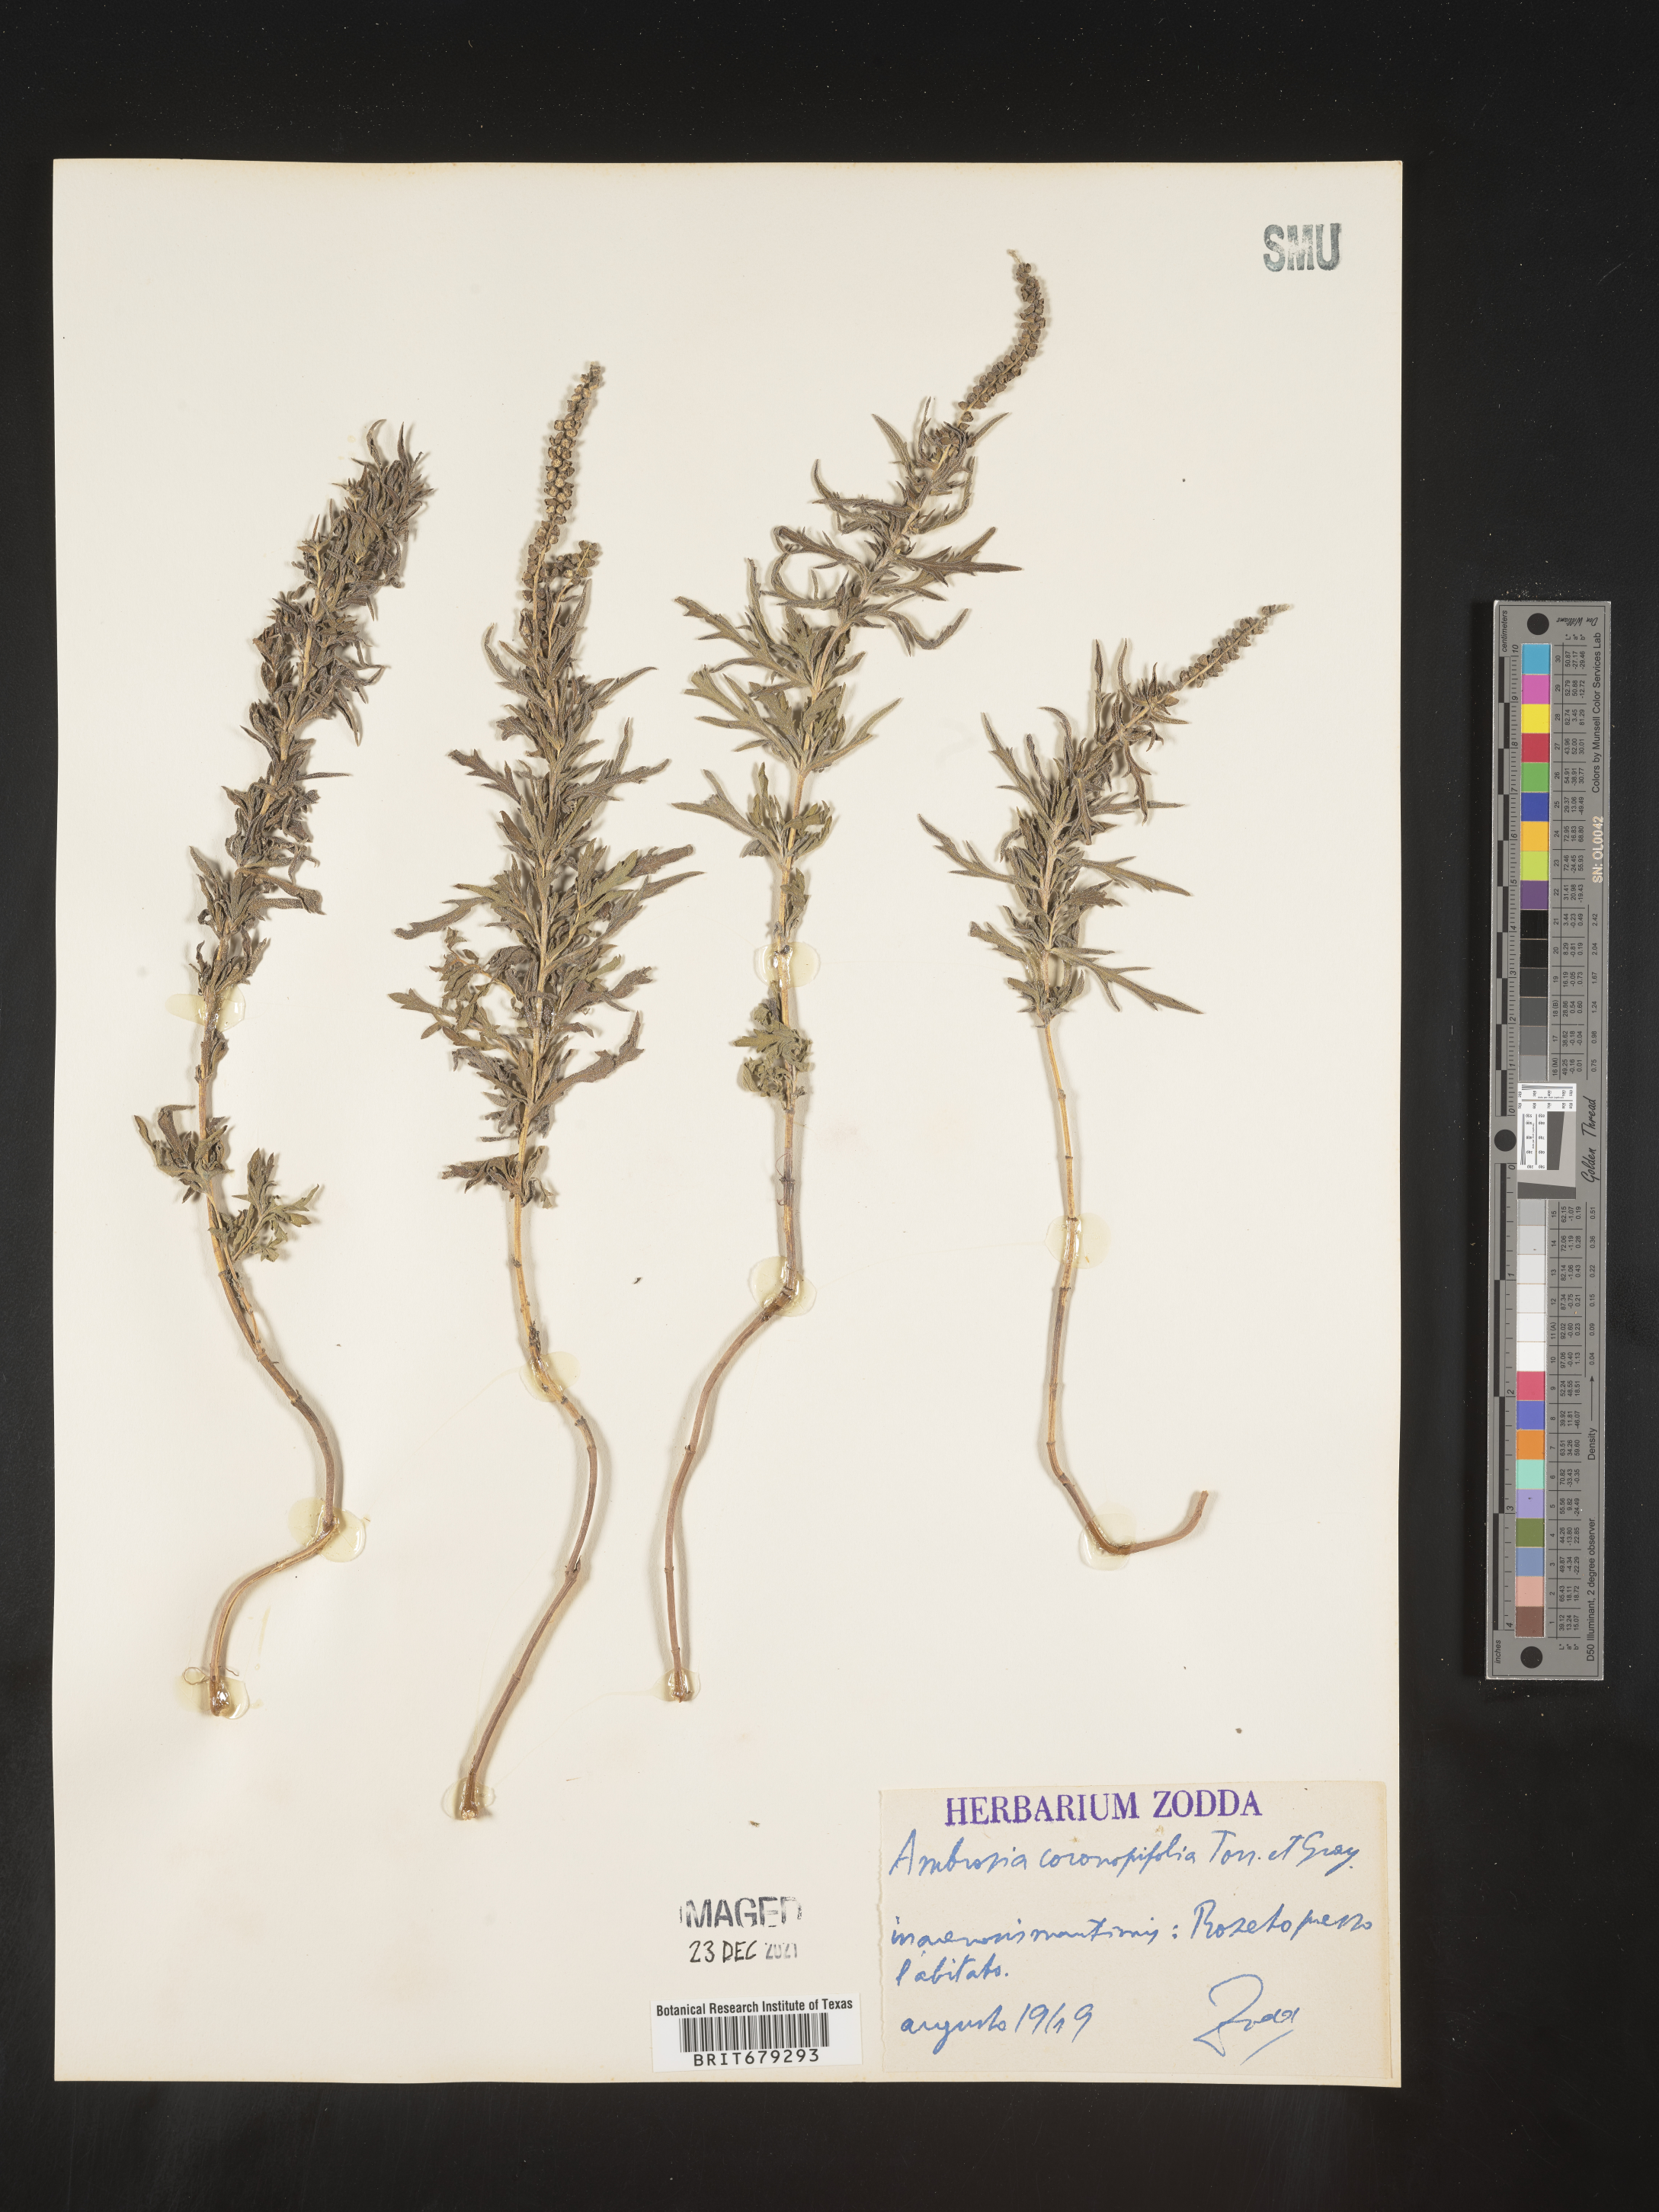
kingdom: Plantae
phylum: Tracheophyta
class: Magnoliopsida
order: Asterales
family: Asteraceae
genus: Ambrosia
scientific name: Ambrosia
